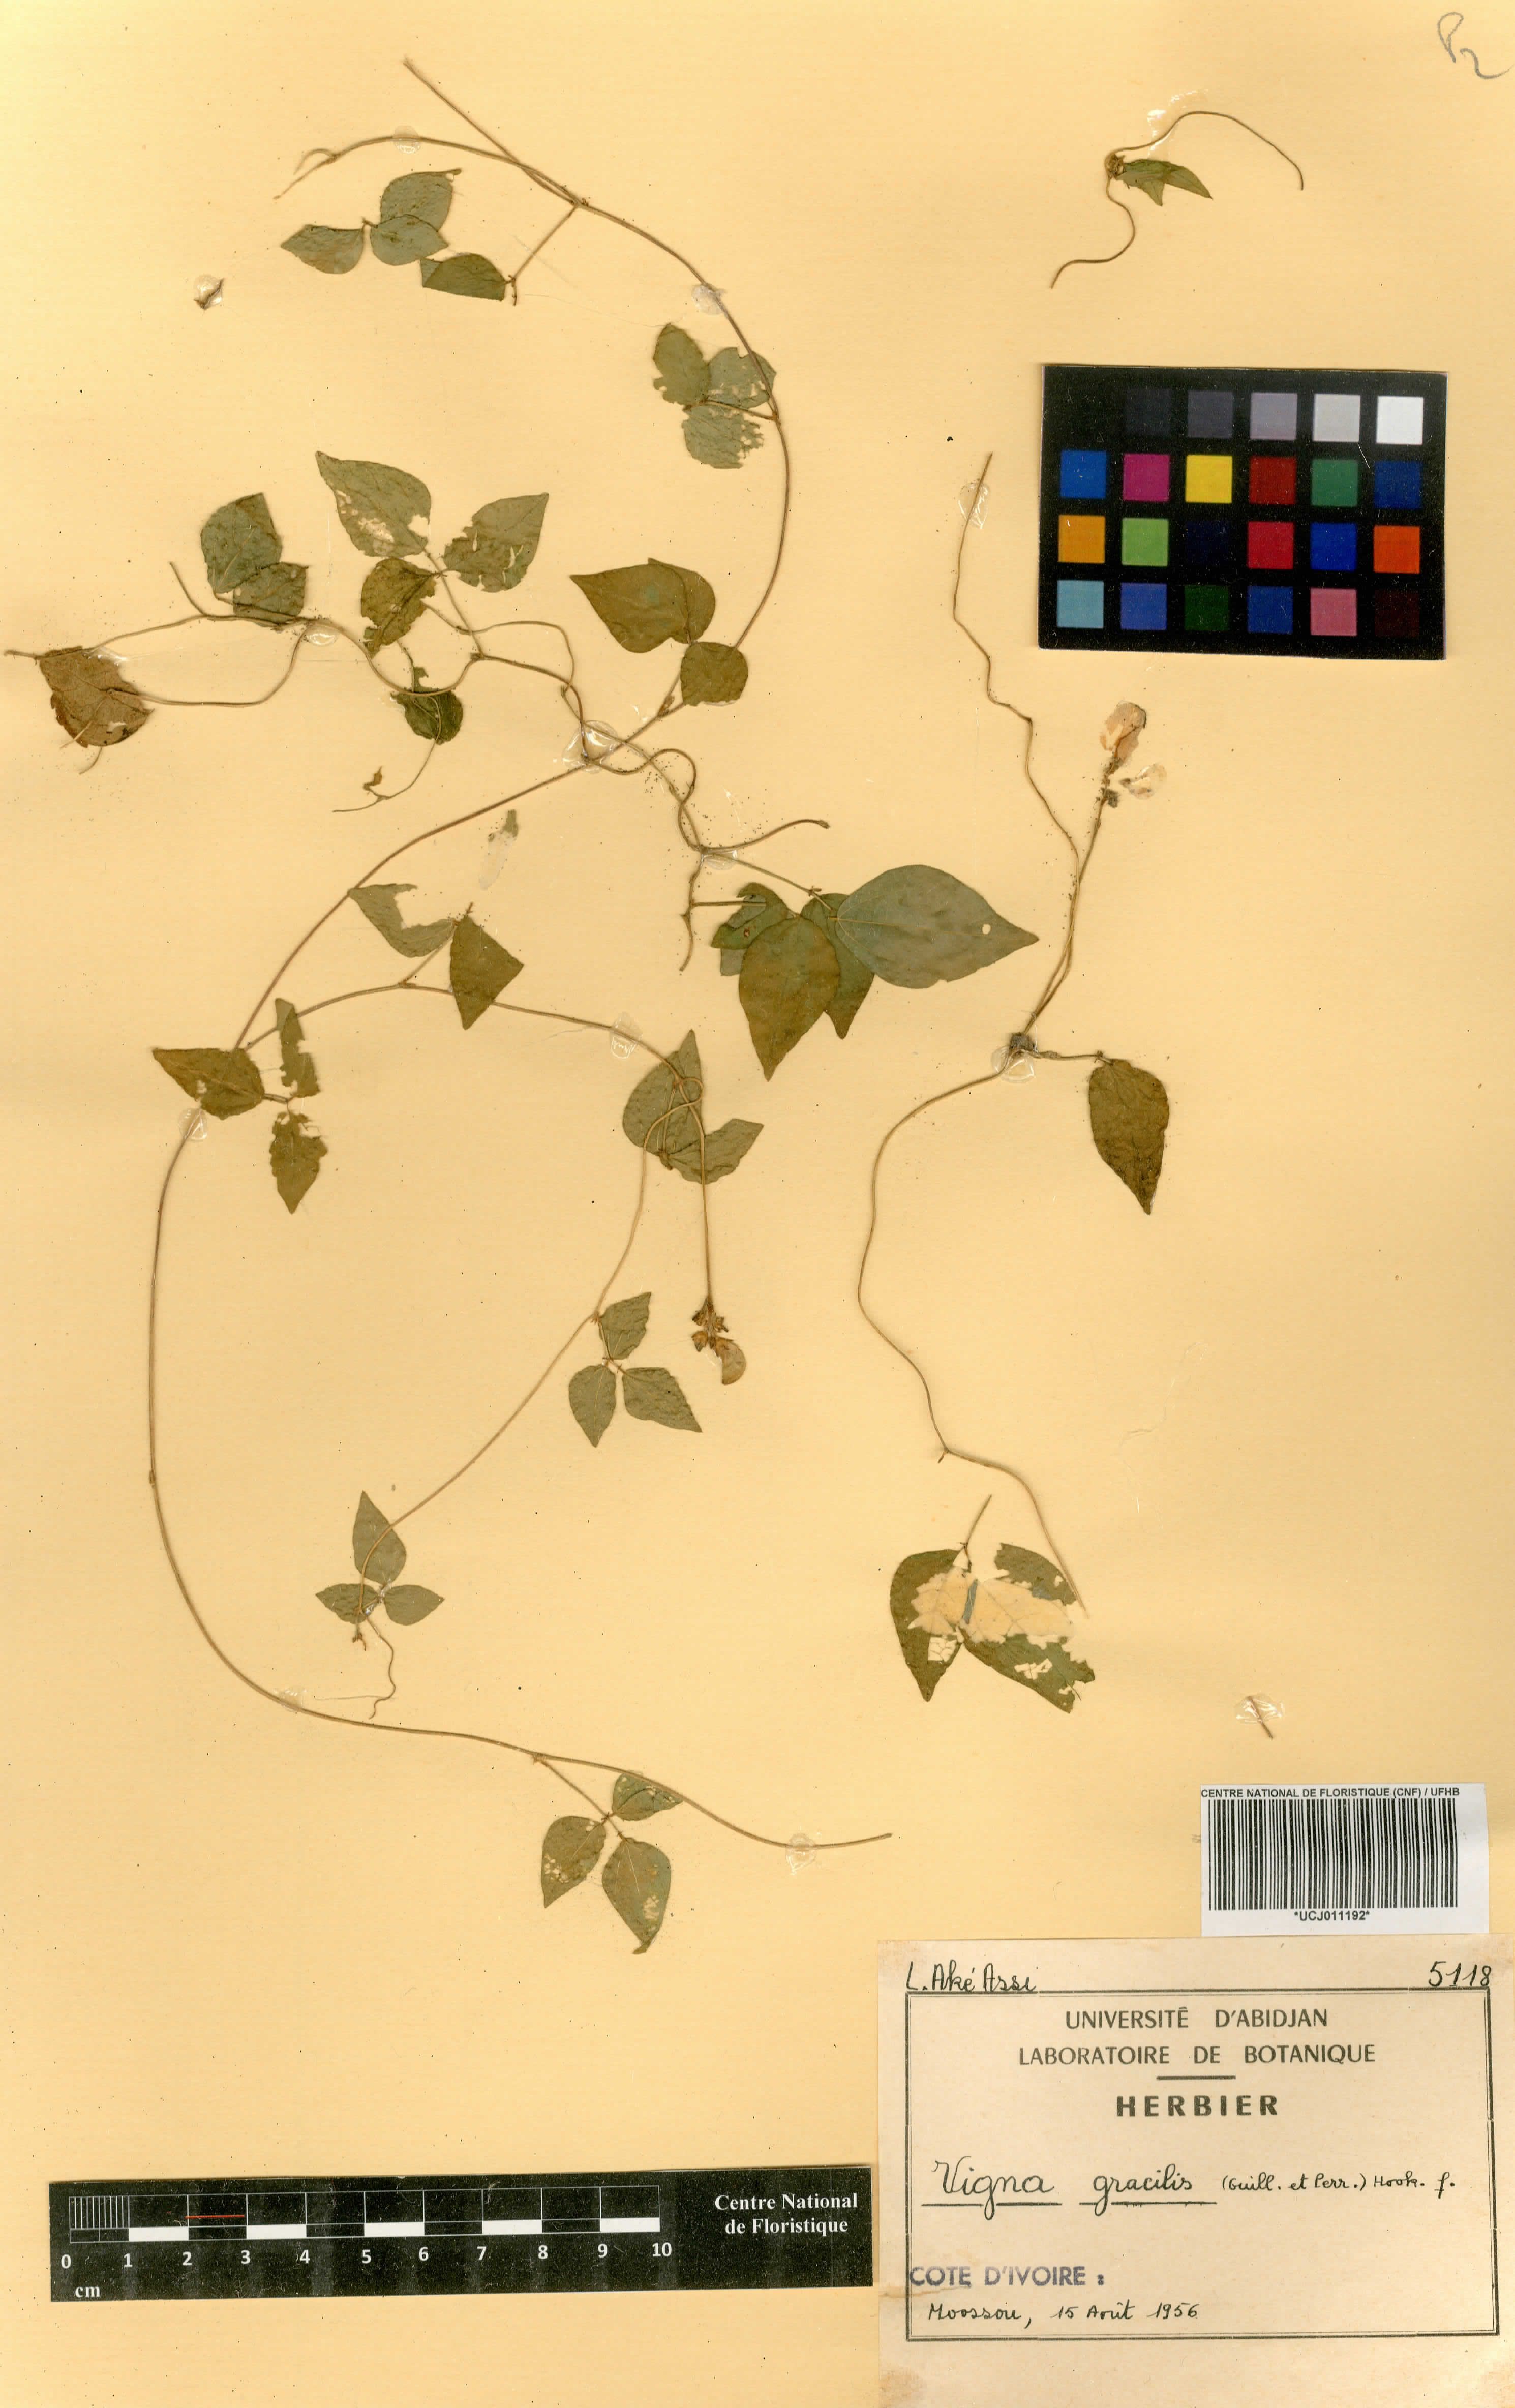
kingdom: Plantae
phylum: Tracheophyta
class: Magnoliopsida
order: Fabales
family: Fabaceae
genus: Vigna
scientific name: Vigna gracilis
